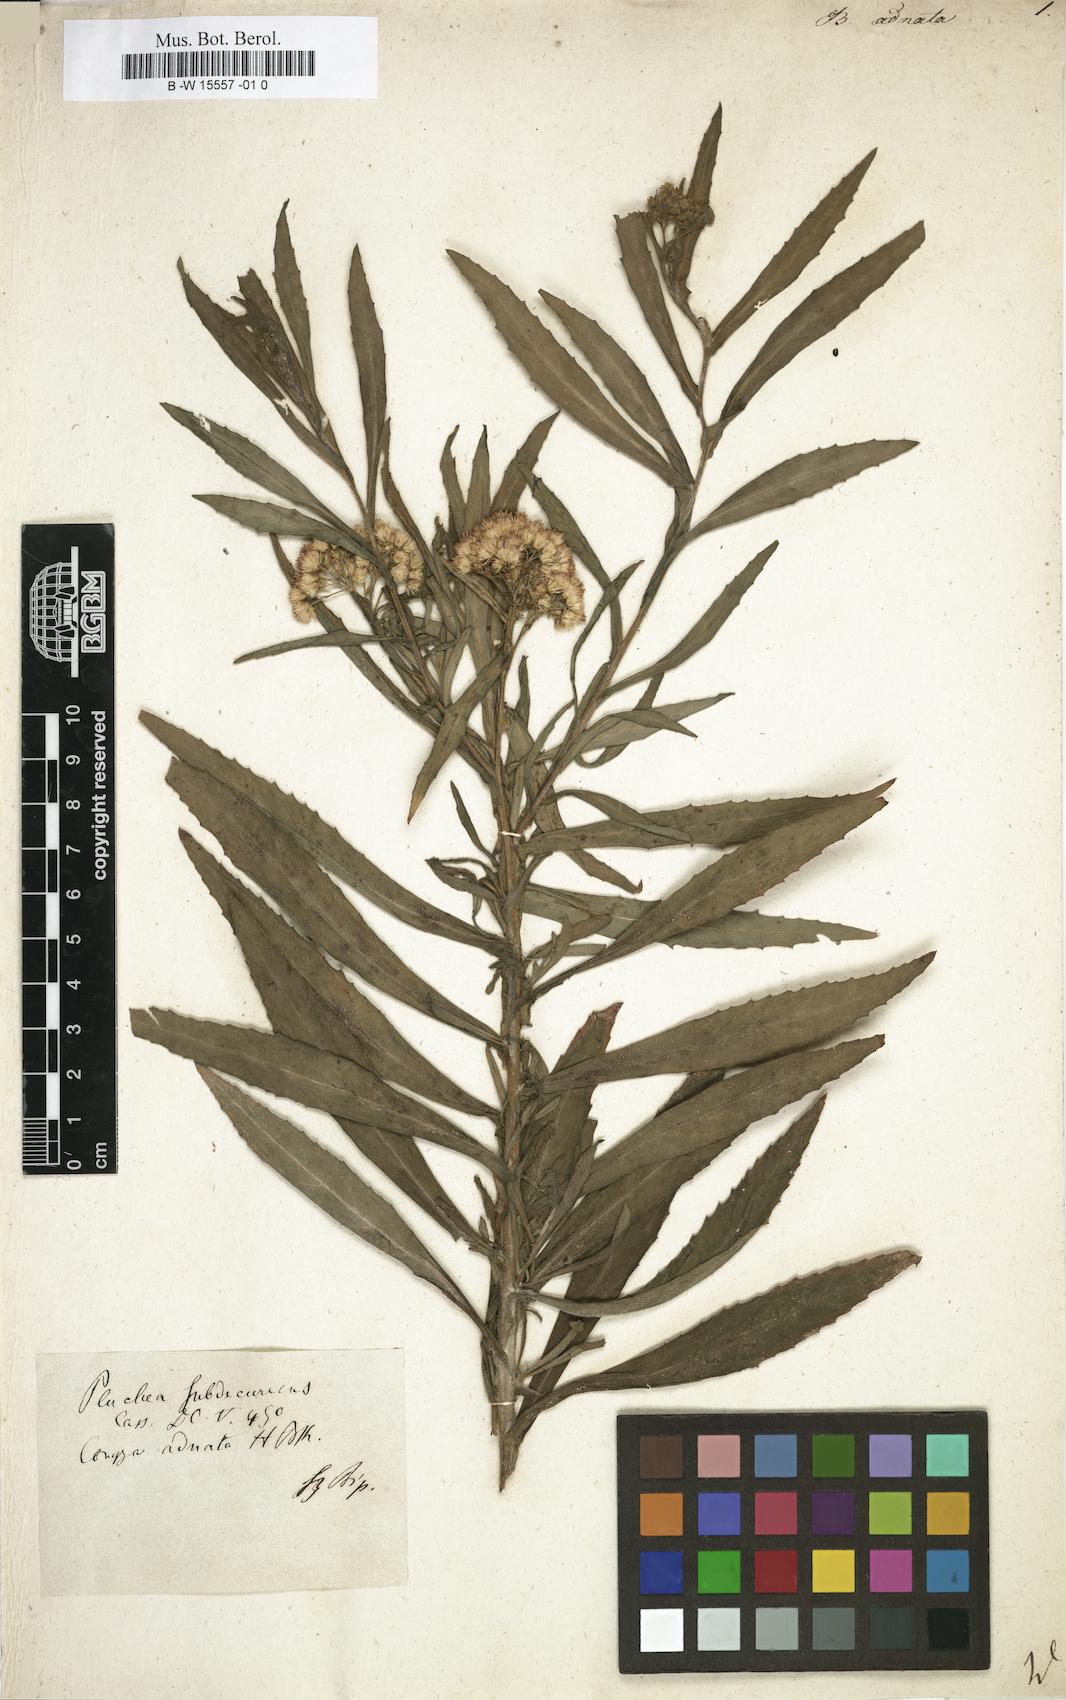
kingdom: Plantae
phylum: Tracheophyta
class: Magnoliopsida
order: Asterales
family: Asteraceae
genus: Pluchea
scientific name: Pluchea salicifolia
